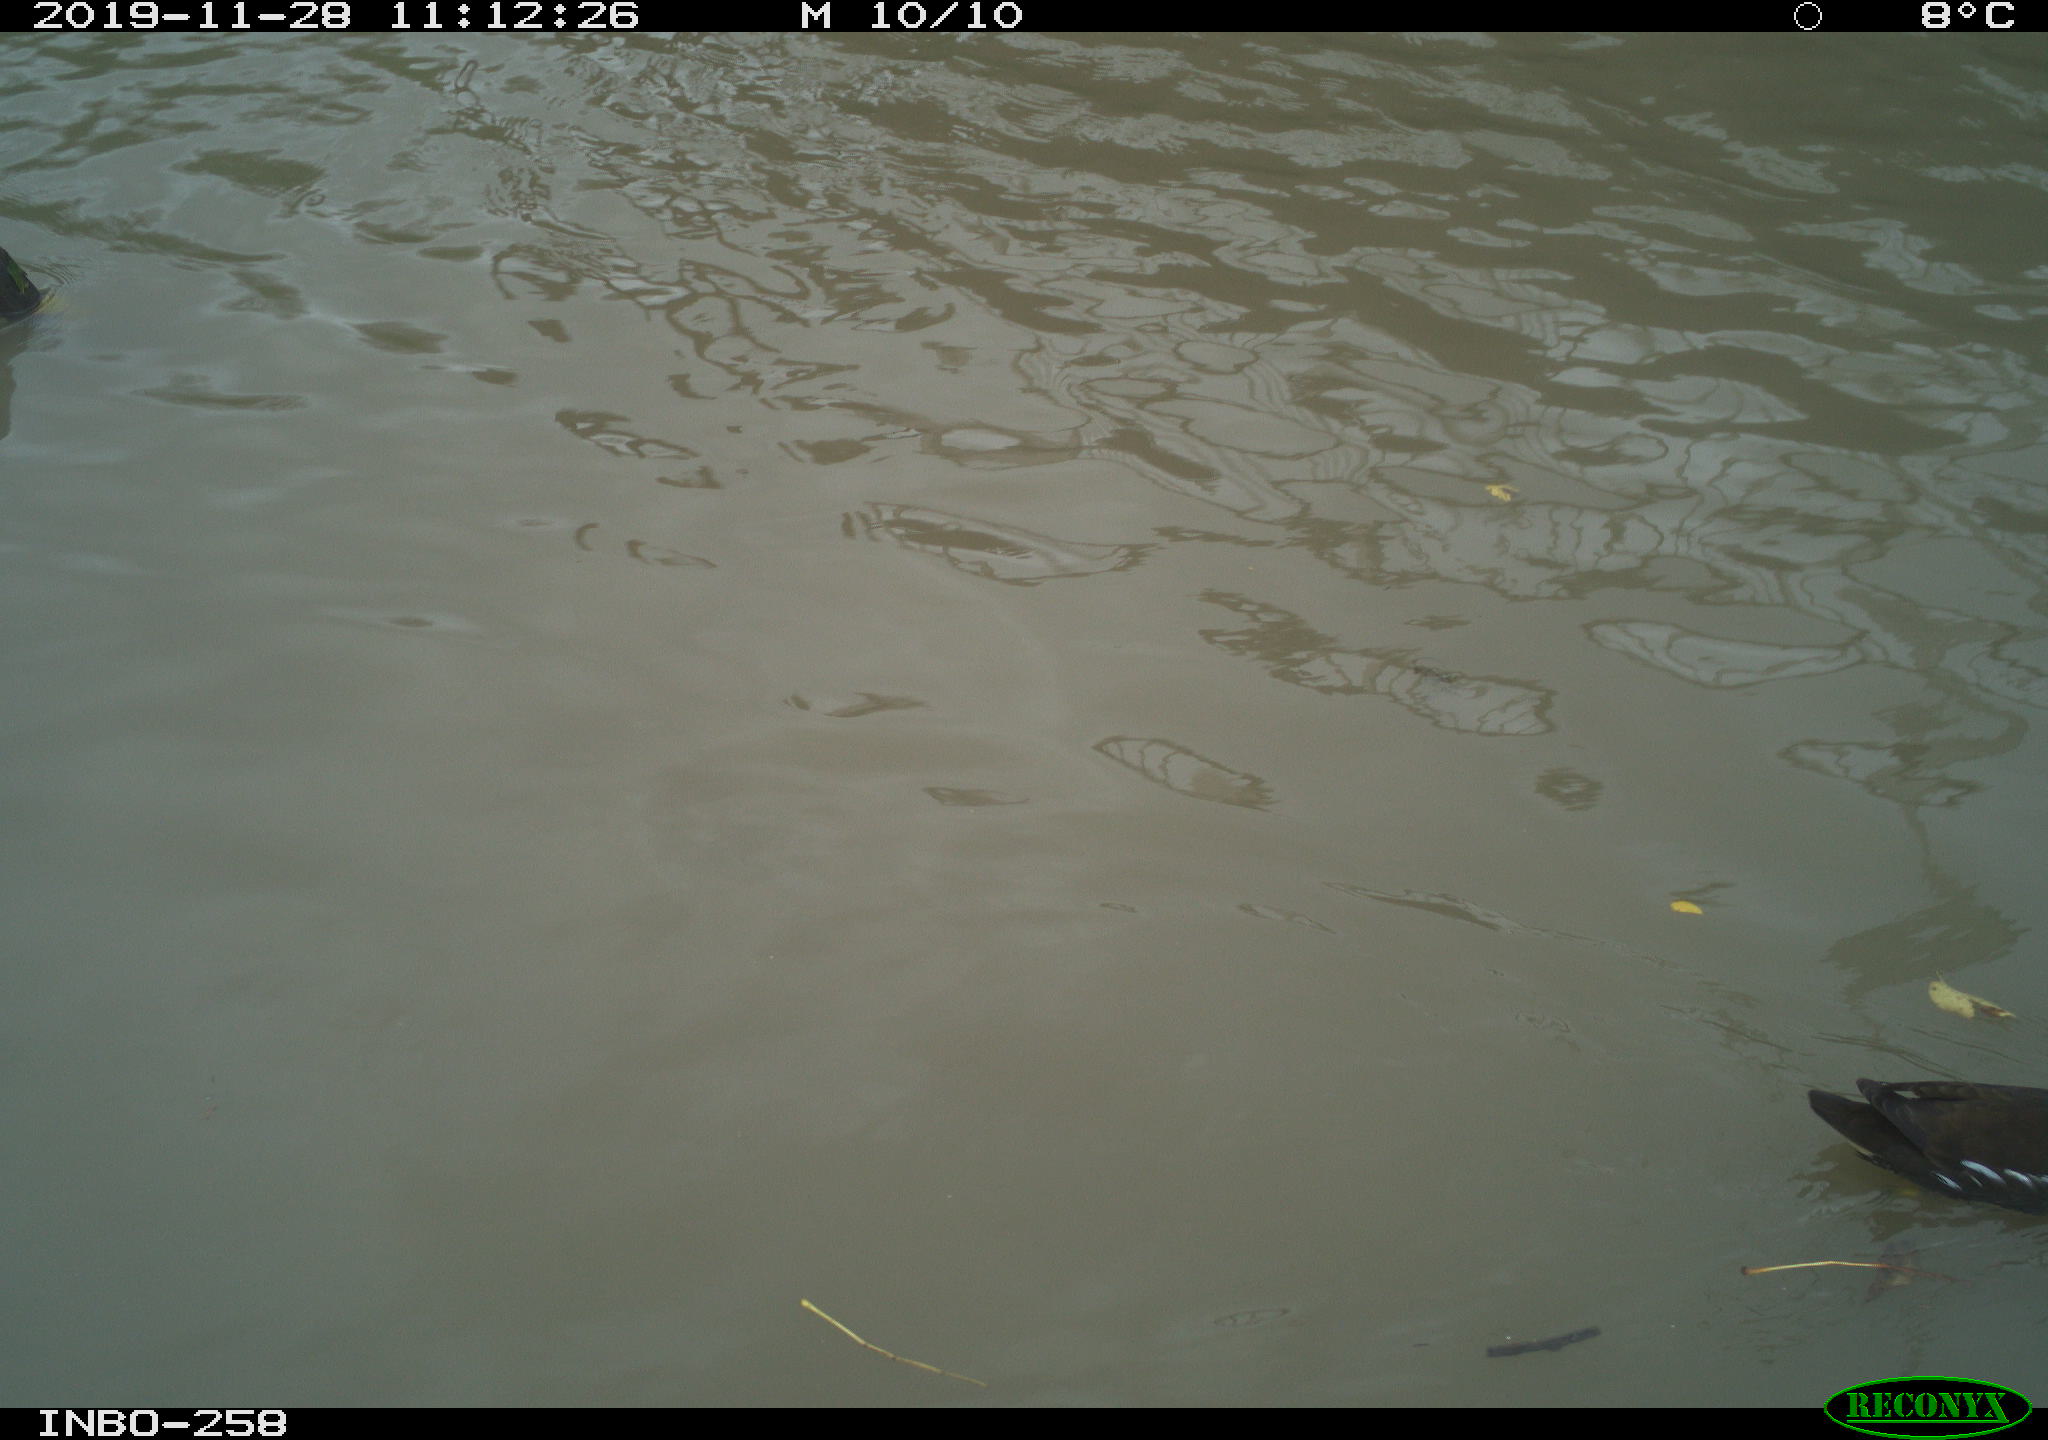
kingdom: Animalia
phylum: Chordata
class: Aves
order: Gruiformes
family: Rallidae
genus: Gallinula
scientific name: Gallinula chloropus
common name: Common moorhen
